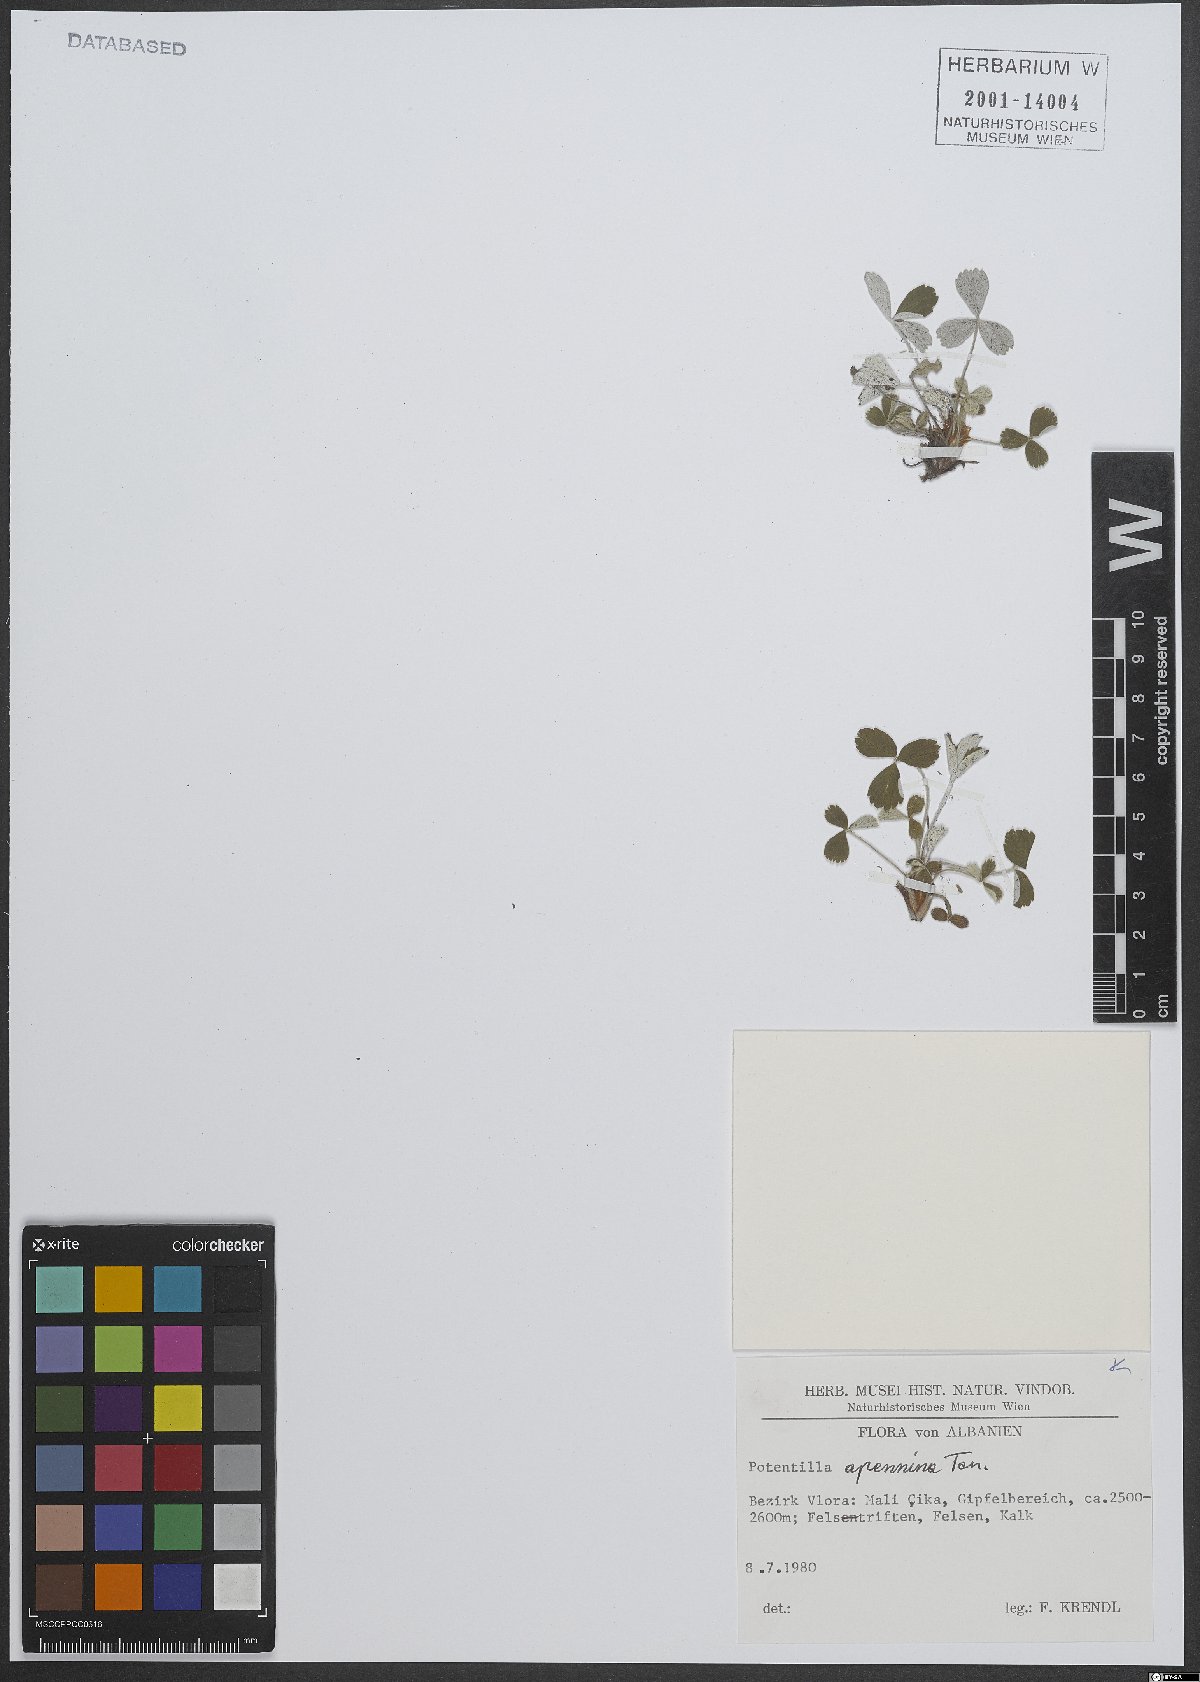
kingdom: Plantae
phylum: Tracheophyta
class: Magnoliopsida
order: Rosales
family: Rosaceae
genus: Potentilla
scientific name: Potentilla apennina
